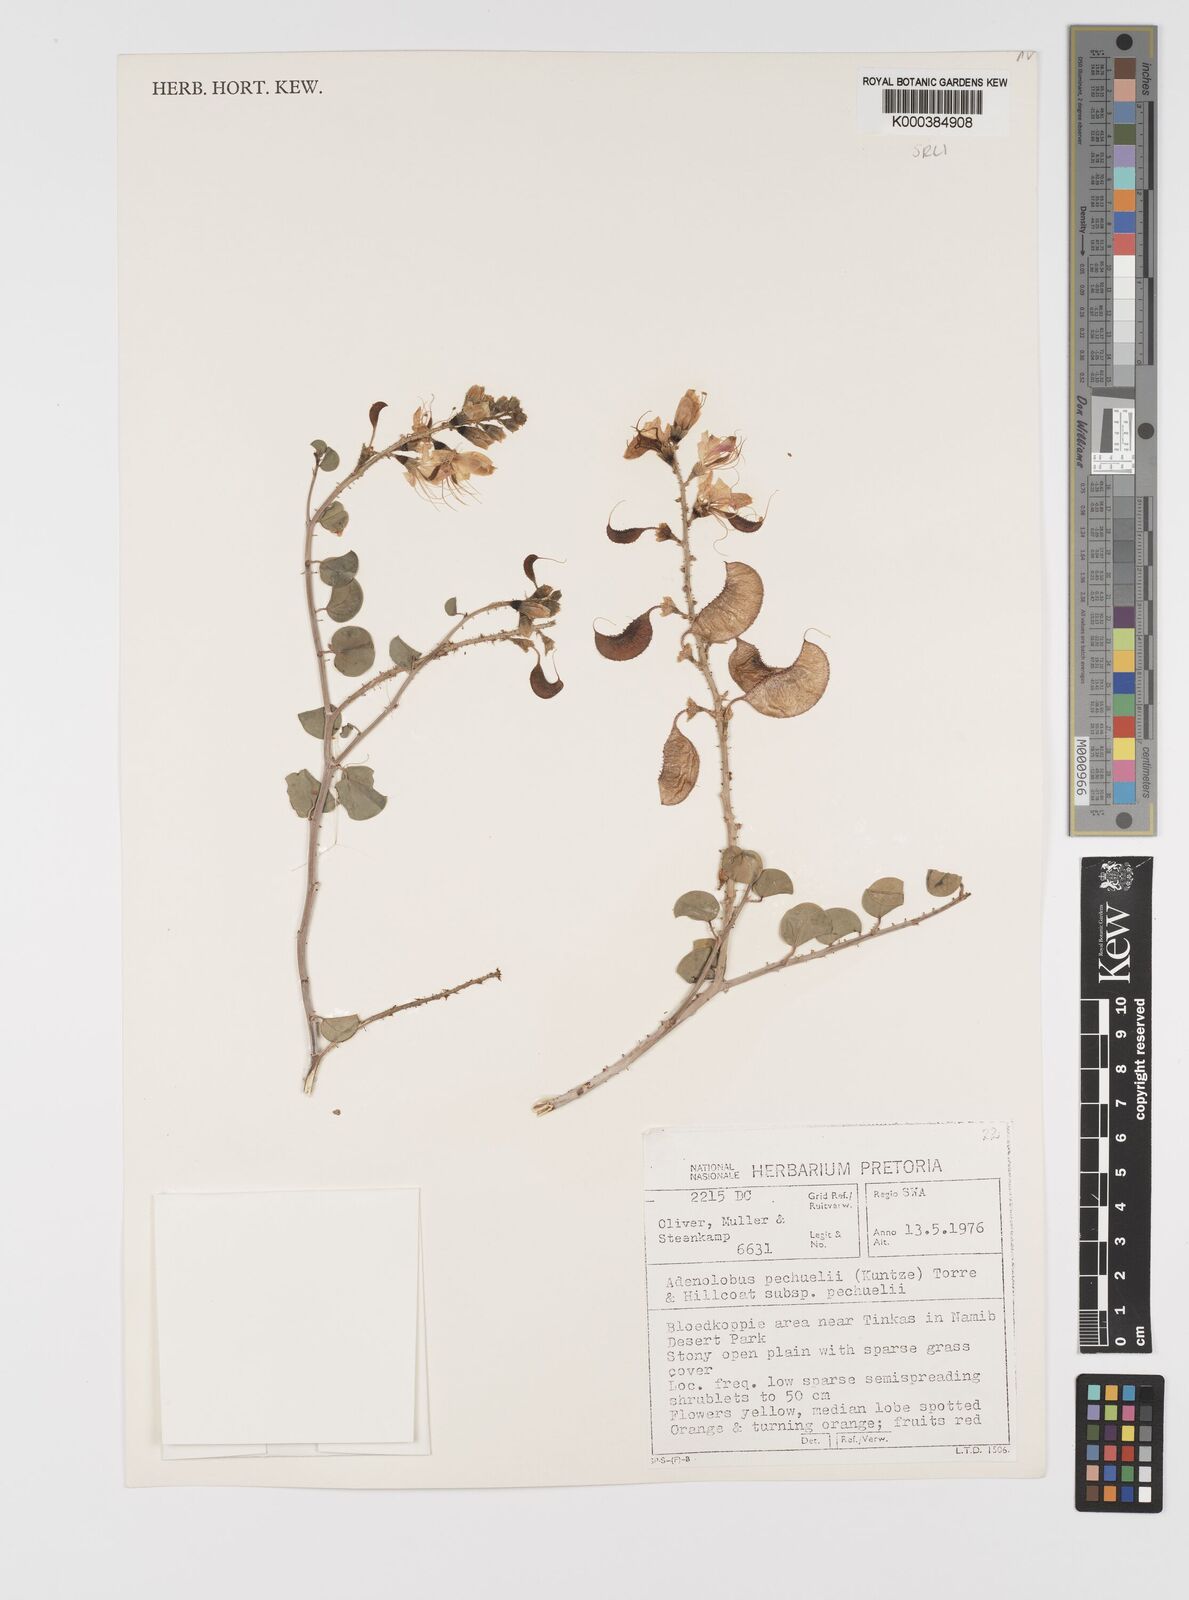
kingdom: Plantae
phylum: Tracheophyta
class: Magnoliopsida
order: Fabales
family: Fabaceae
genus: Adenolobus
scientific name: Adenolobus pechuelii
